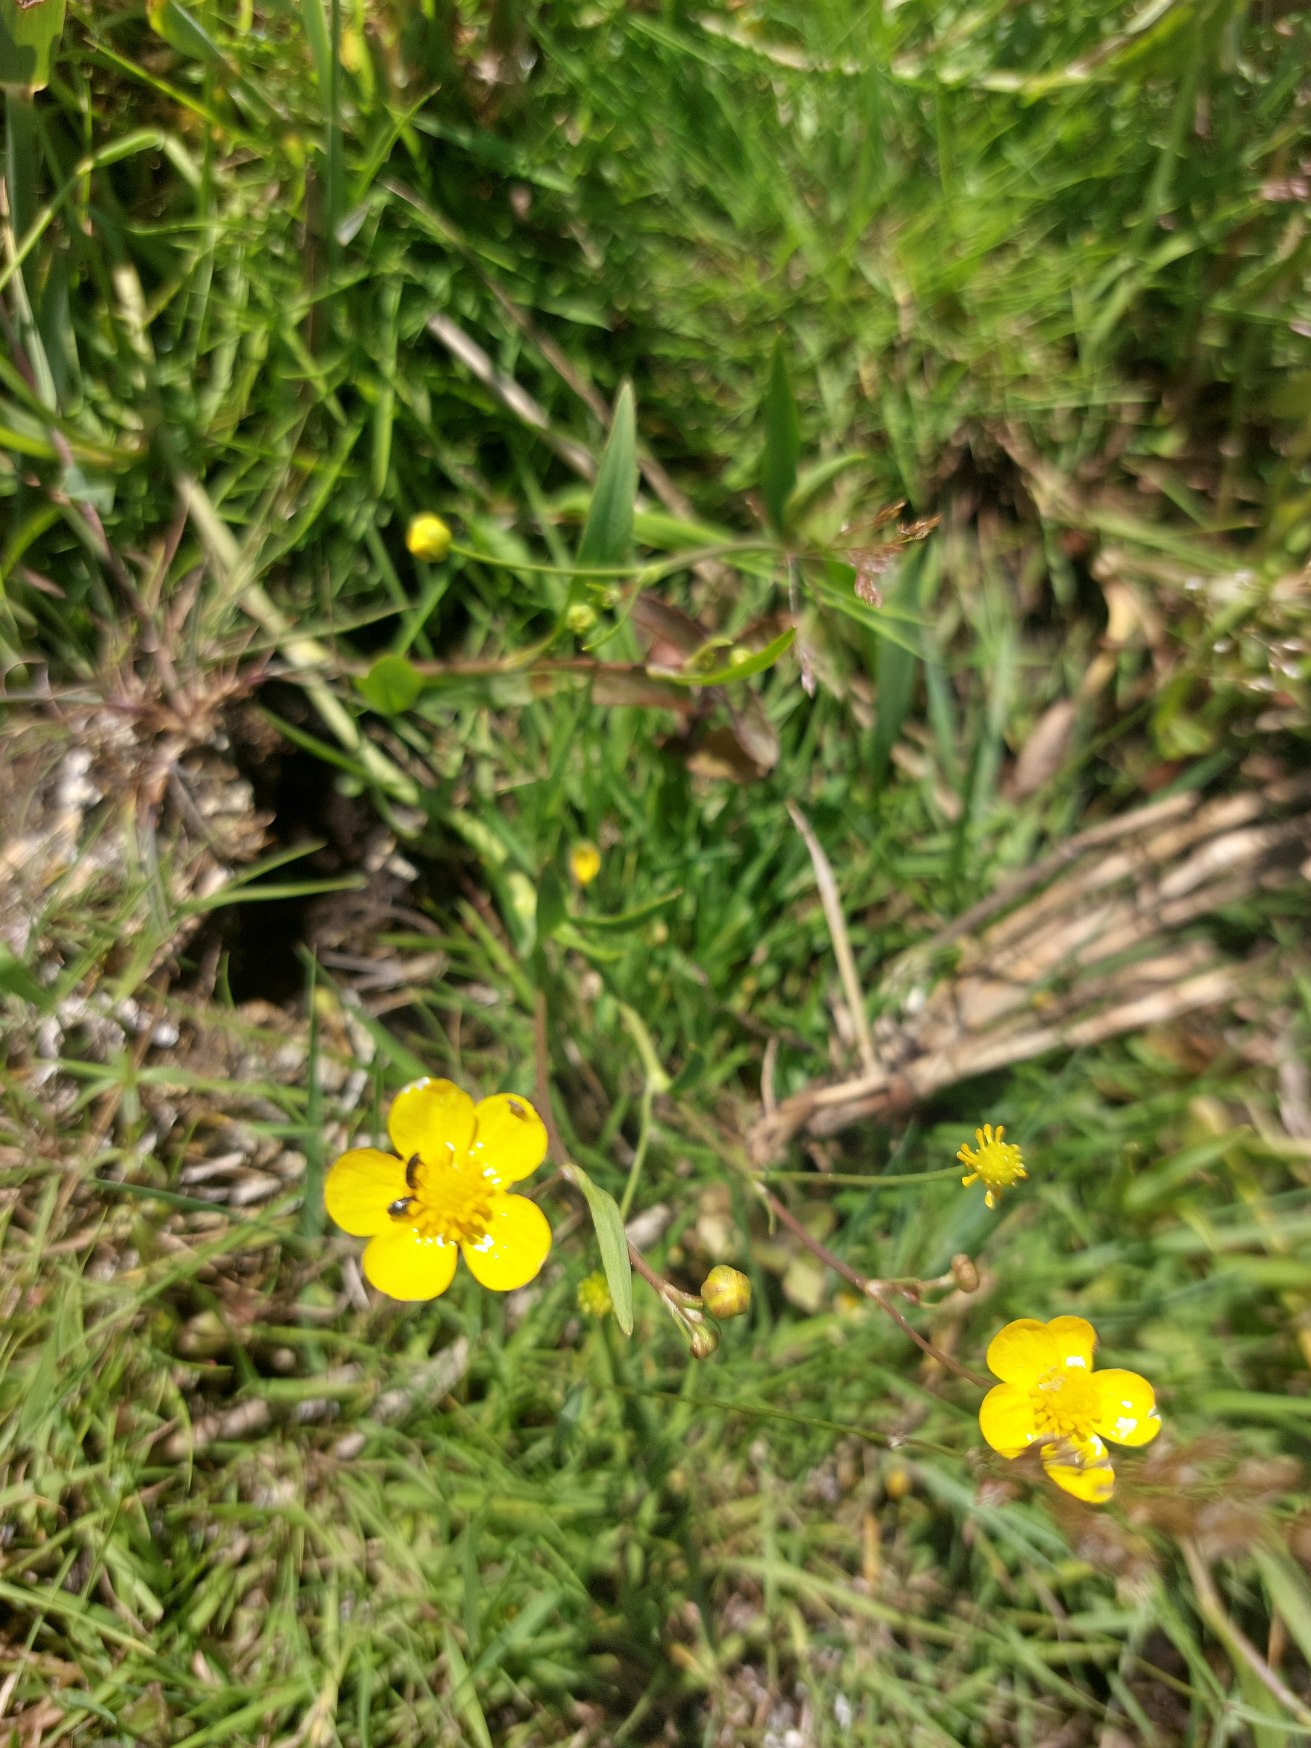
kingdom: Plantae
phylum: Tracheophyta
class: Magnoliopsida
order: Ranunculales
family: Ranunculaceae
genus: Ranunculus
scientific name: Ranunculus flammula
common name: Kær-ranunkel
